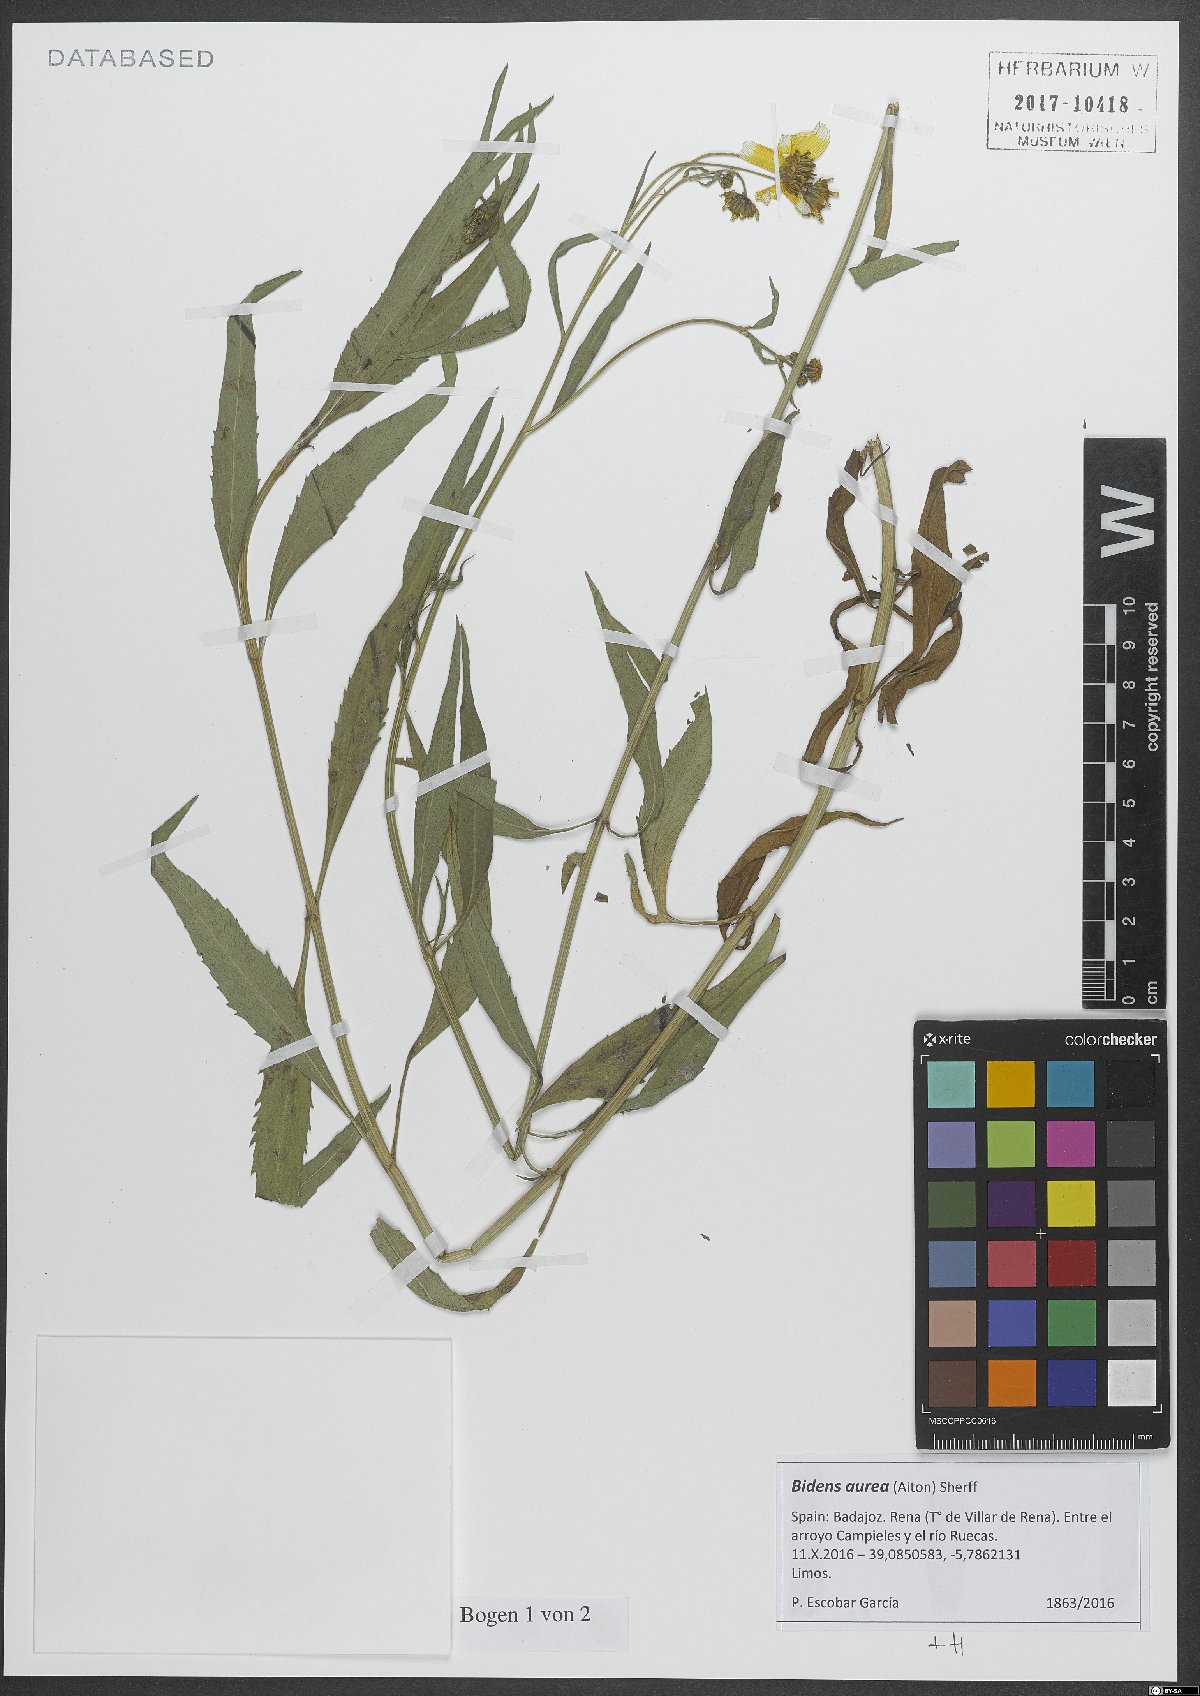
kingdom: Plantae
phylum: Tracheophyta
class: Magnoliopsida
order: Asterales
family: Asteraceae
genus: Bidens
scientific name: Bidens aurea
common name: Arizona beggar-ticks
